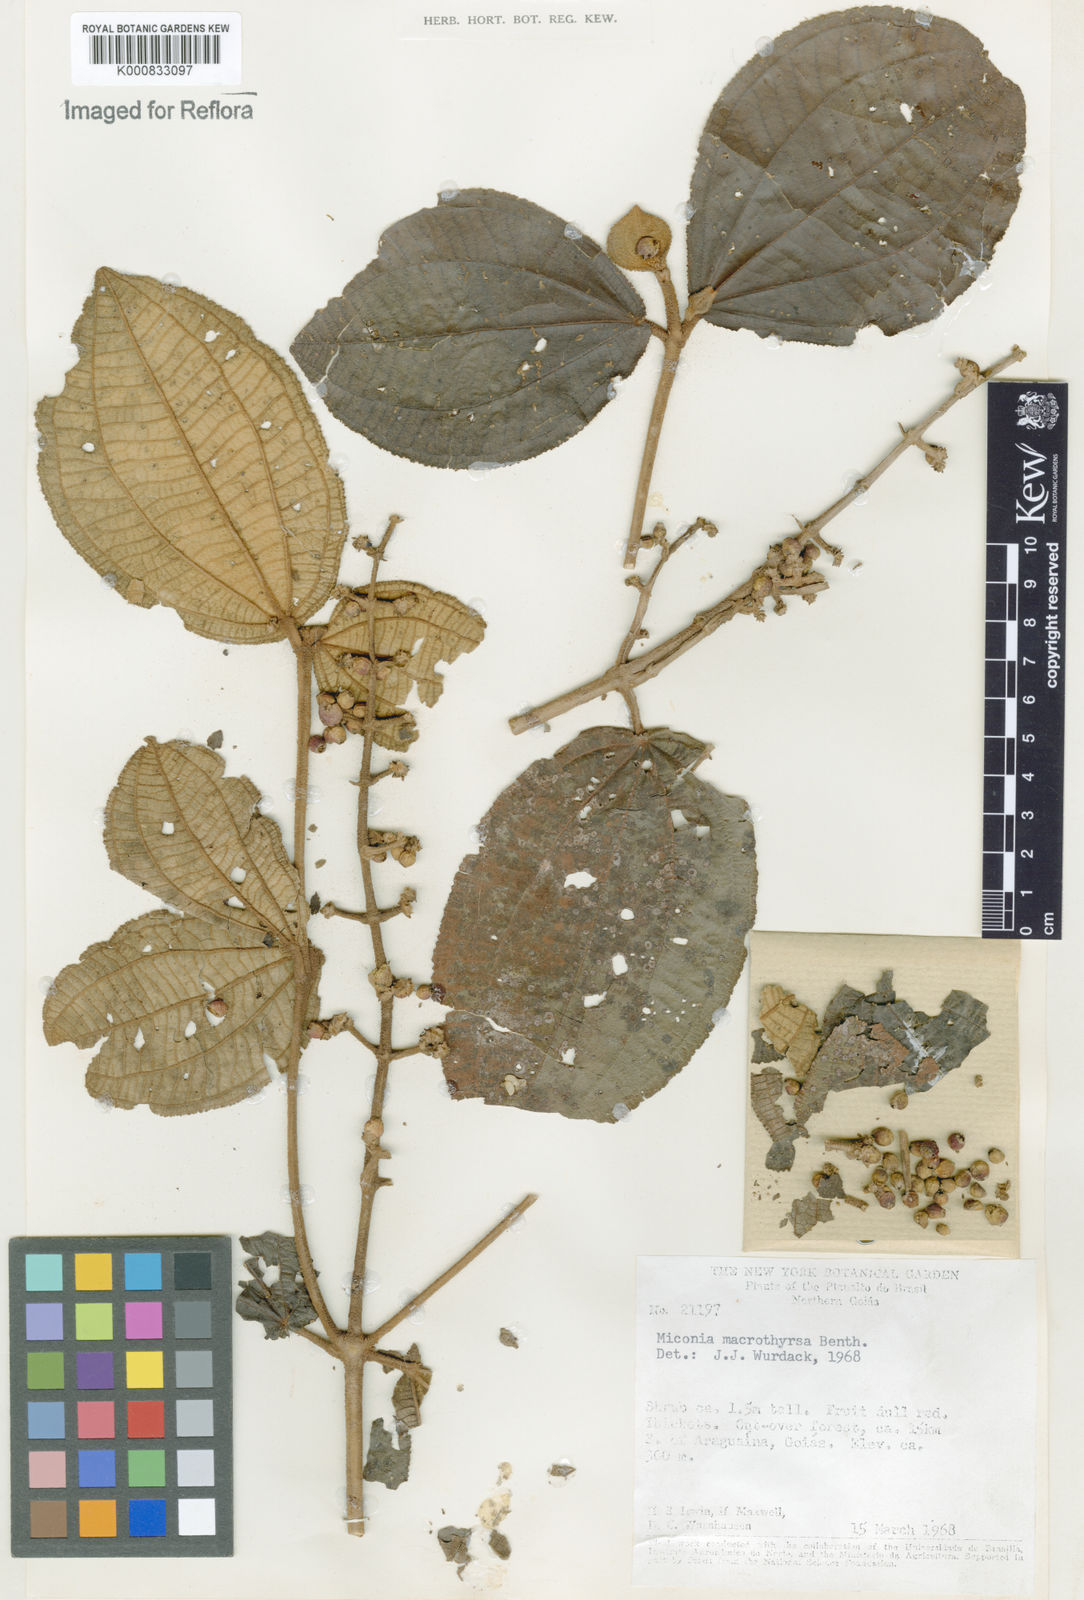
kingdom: Plantae
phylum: Tracheophyta
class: Magnoliopsida
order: Myrtales
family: Melastomataceae
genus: Miconia
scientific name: Miconia macrothyrsa
